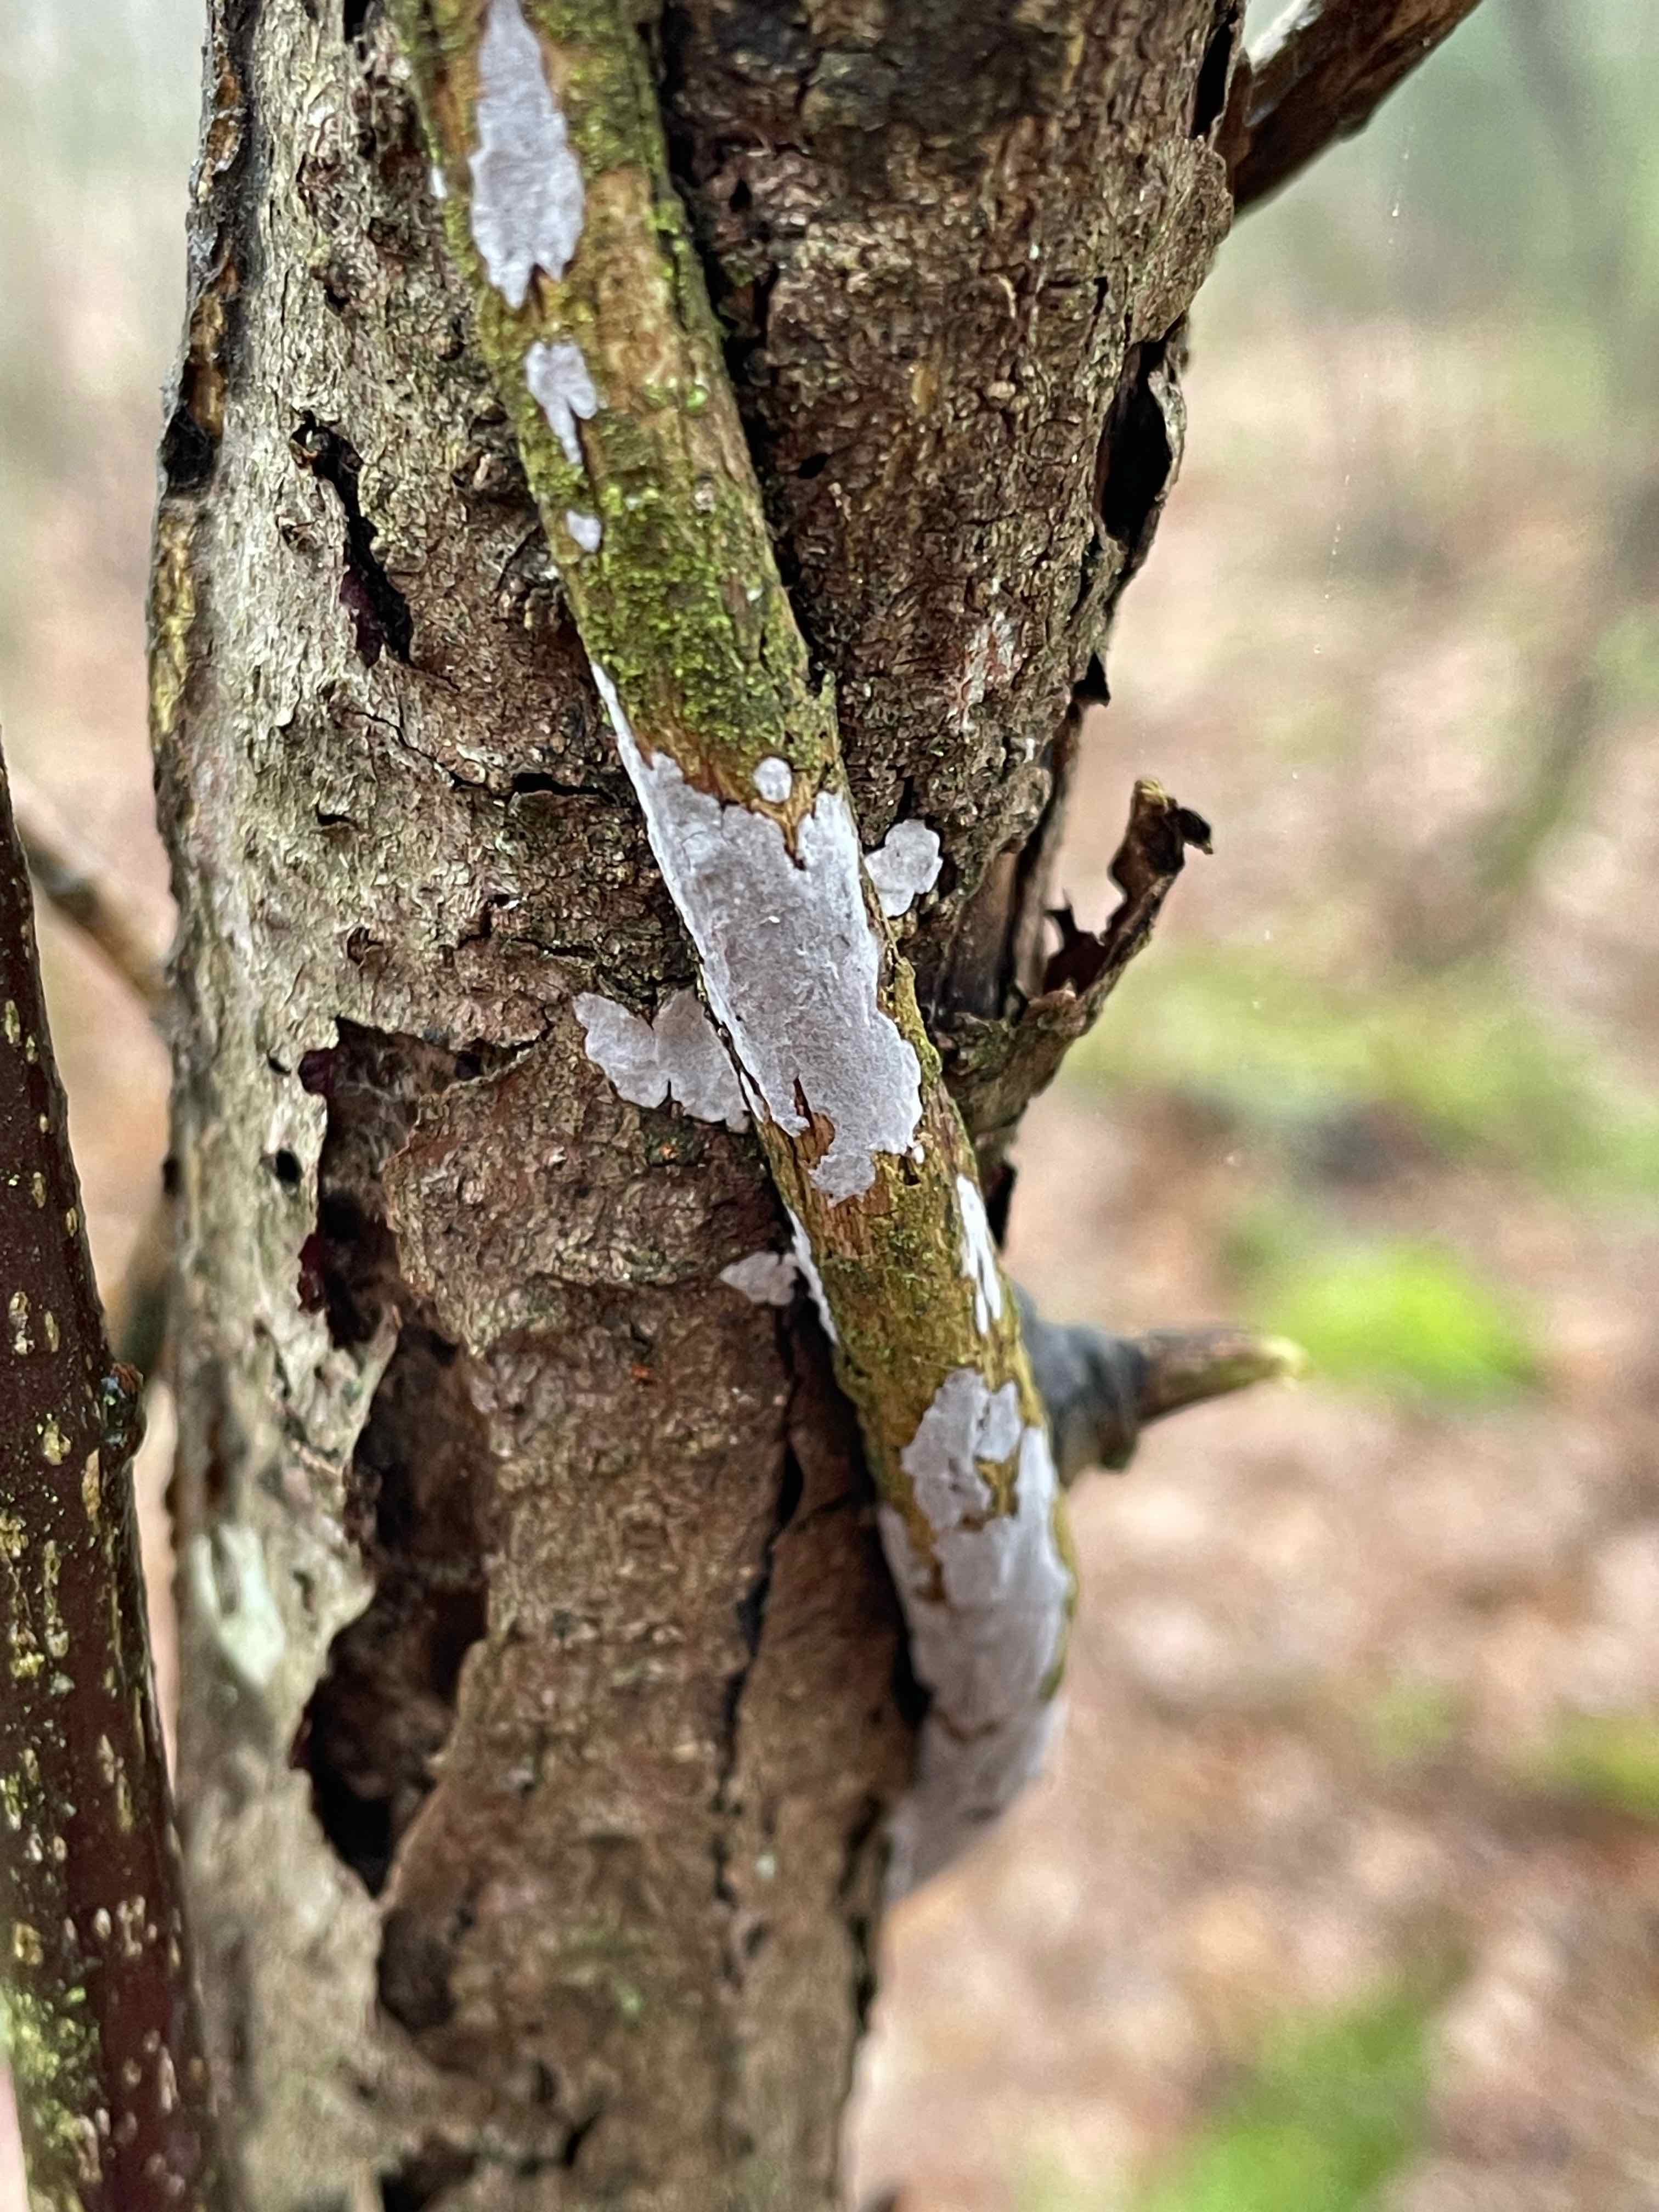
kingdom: Fungi
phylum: Basidiomycota
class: Agaricomycetes
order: Russulales
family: Peniophoraceae
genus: Peniophora
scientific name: Peniophora
